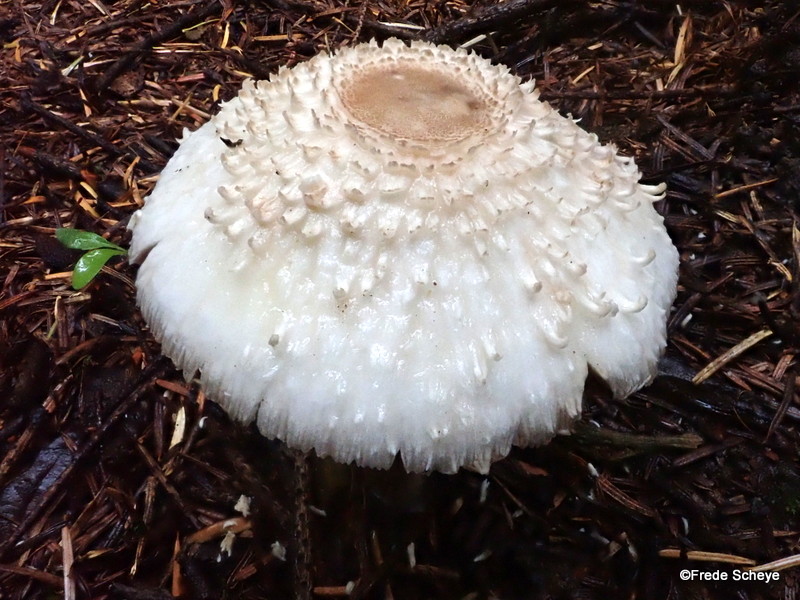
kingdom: Fungi
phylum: Basidiomycota
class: Agaricomycetes
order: Agaricales
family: Agaricaceae
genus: Leucoagaricus
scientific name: Leucoagaricus nympharum
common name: gran-silkehat
